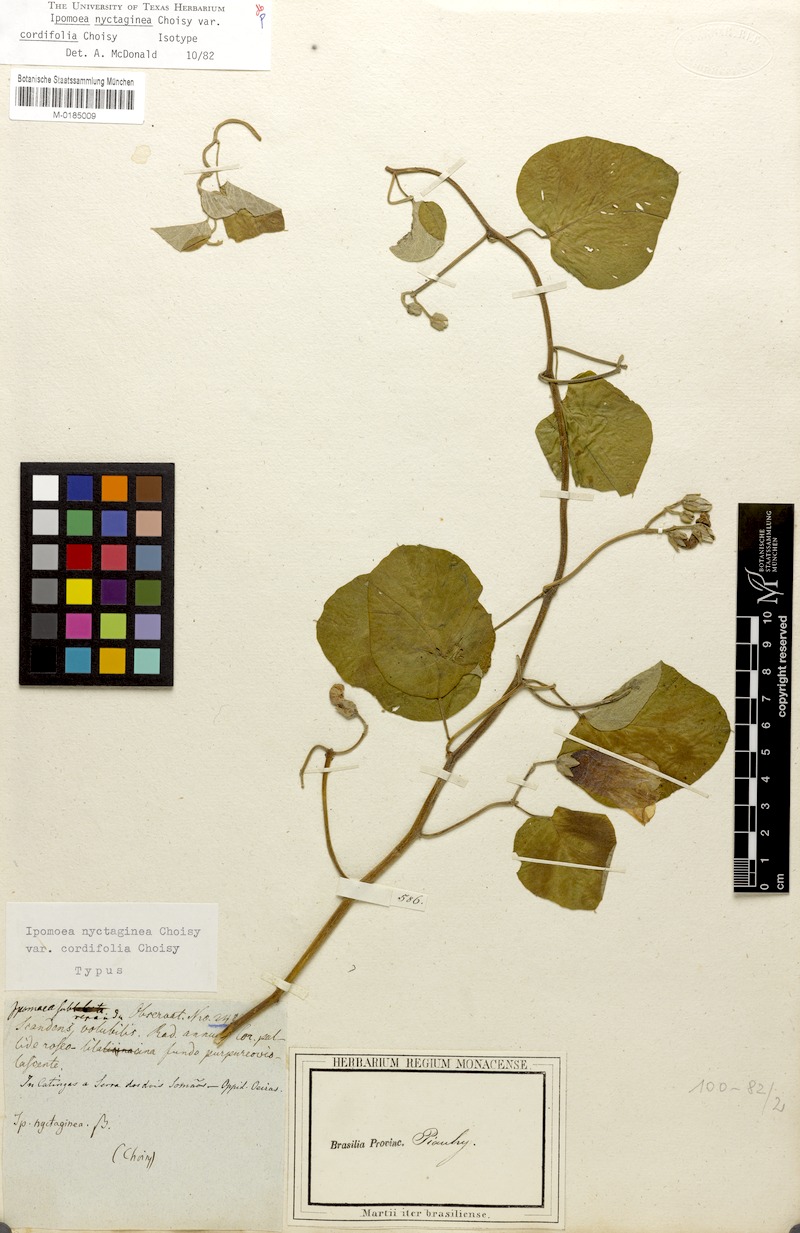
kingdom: Plantae
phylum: Tracheophyta
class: Magnoliopsida
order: Solanales
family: Convolvulaceae
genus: Ipomoea
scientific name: Ipomoea megapotamica
